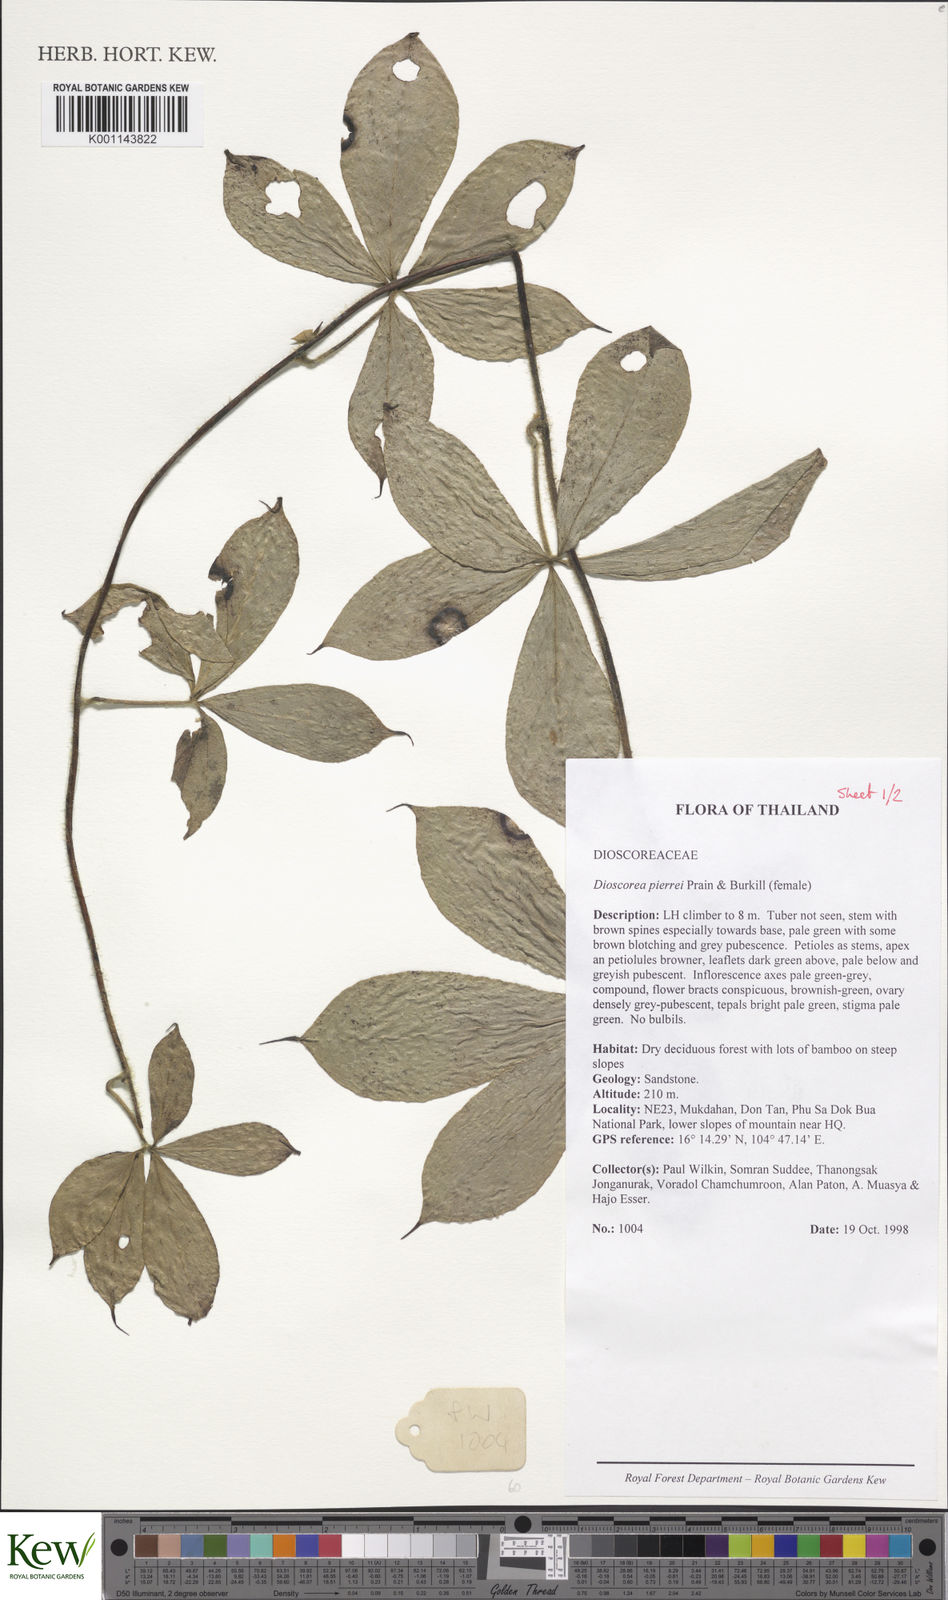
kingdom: Plantae
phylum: Tracheophyta
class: Liliopsida
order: Dioscoreales
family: Dioscoreaceae
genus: Dioscorea
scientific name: Dioscorea pierrei
